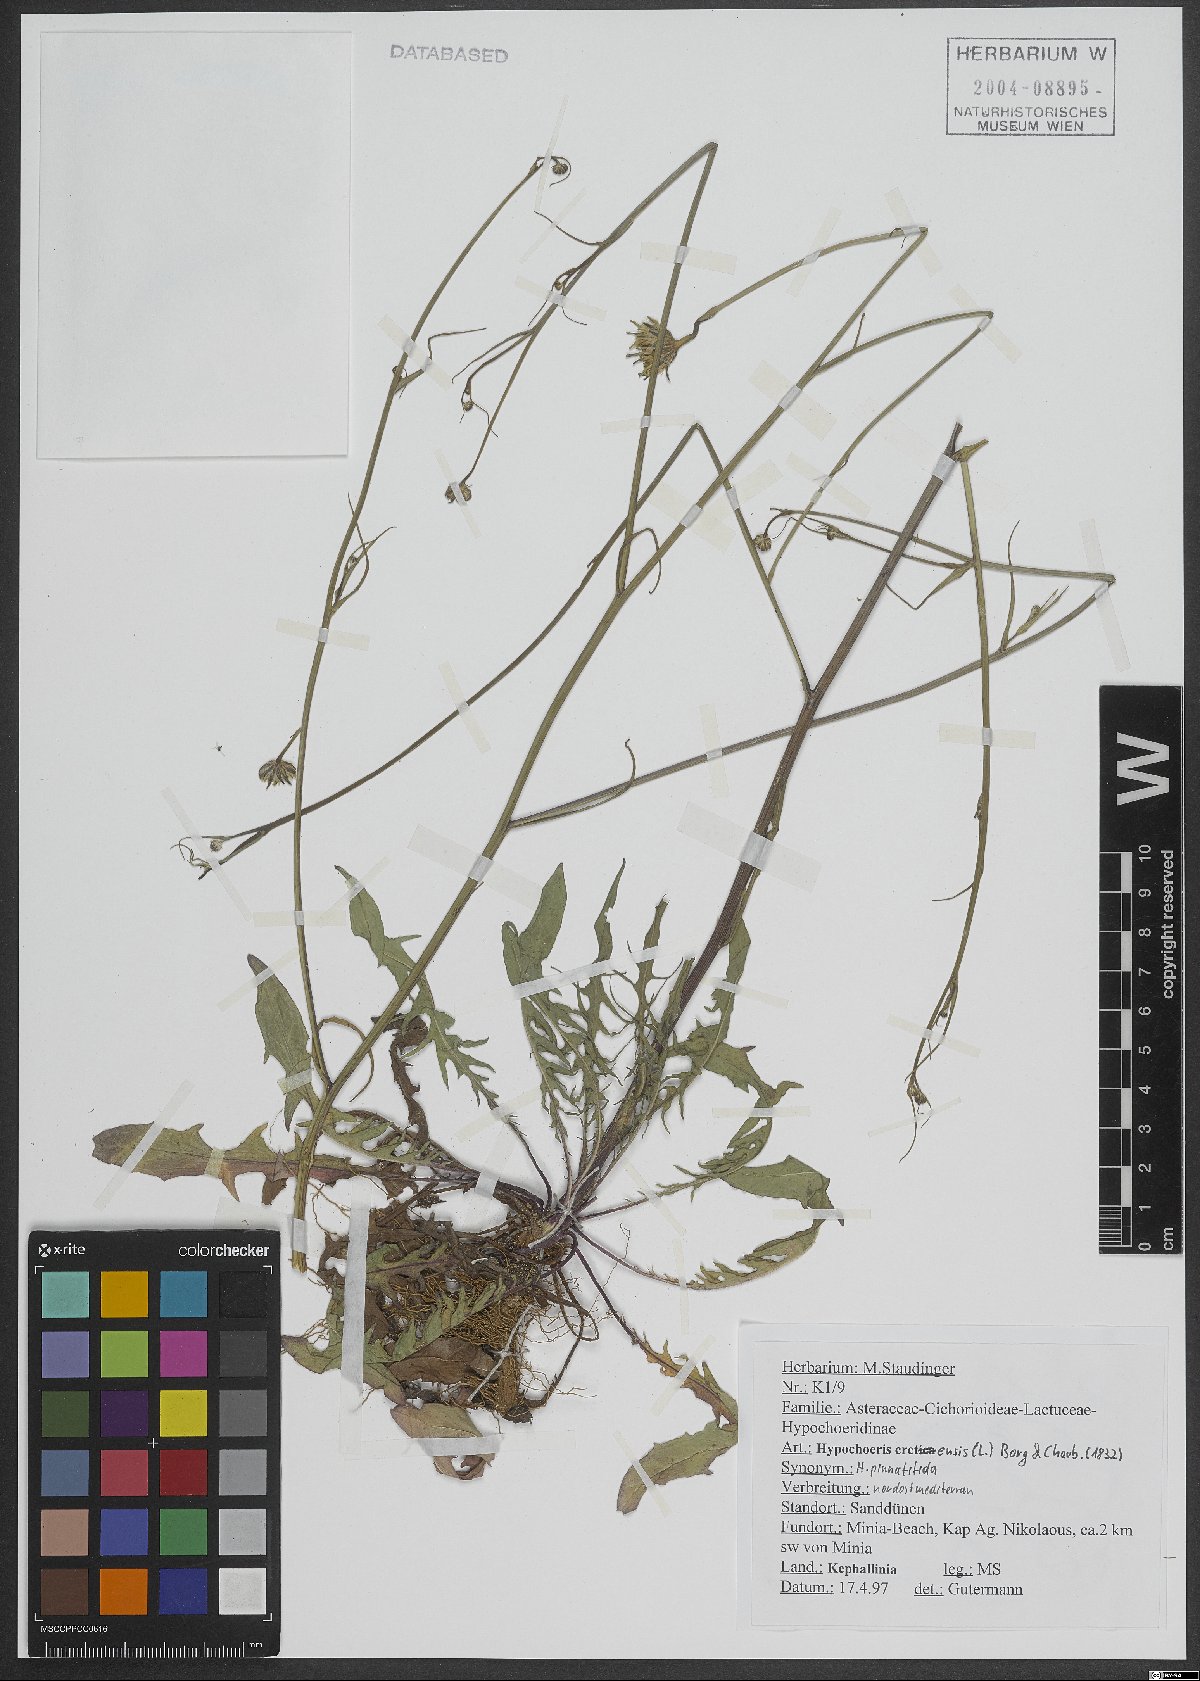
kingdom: Plantae
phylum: Tracheophyta
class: Magnoliopsida
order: Asterales
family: Asteraceae
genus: Hypochaeris
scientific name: Hypochaeris cretensis
